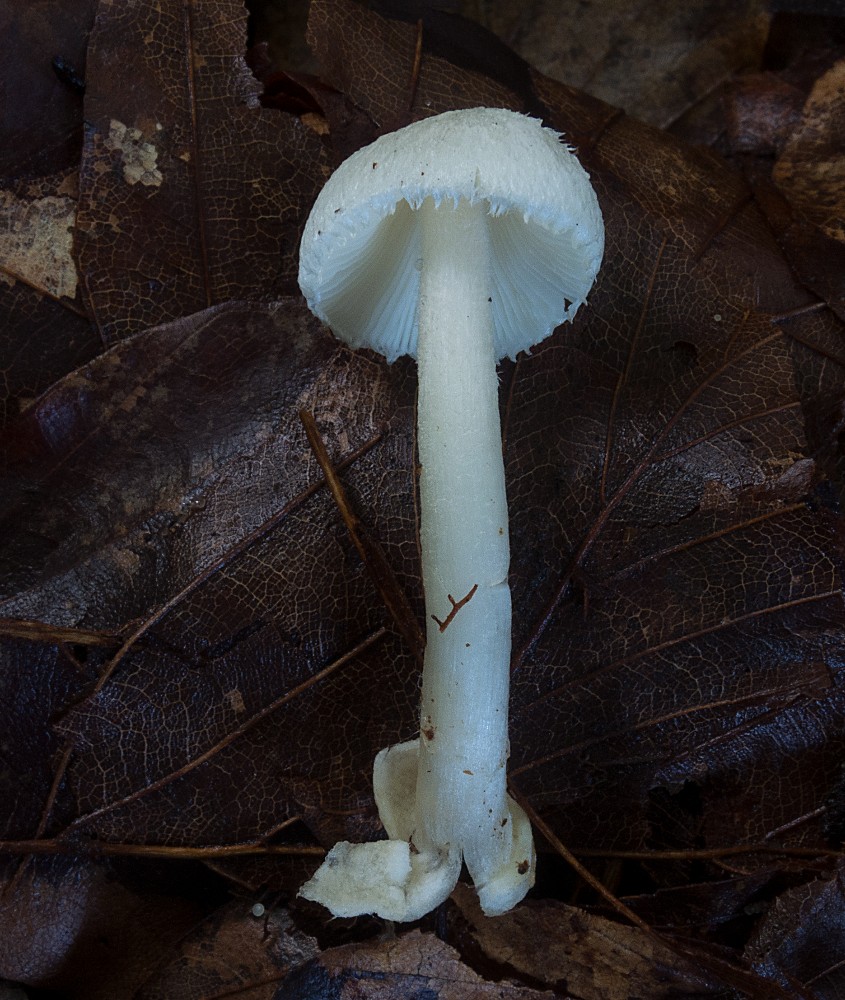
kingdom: Fungi
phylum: Basidiomycota
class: Agaricomycetes
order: Agaricales
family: Pluteaceae
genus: Volvariella
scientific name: Volvariella hypopithys
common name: dunstokket posesvamp
